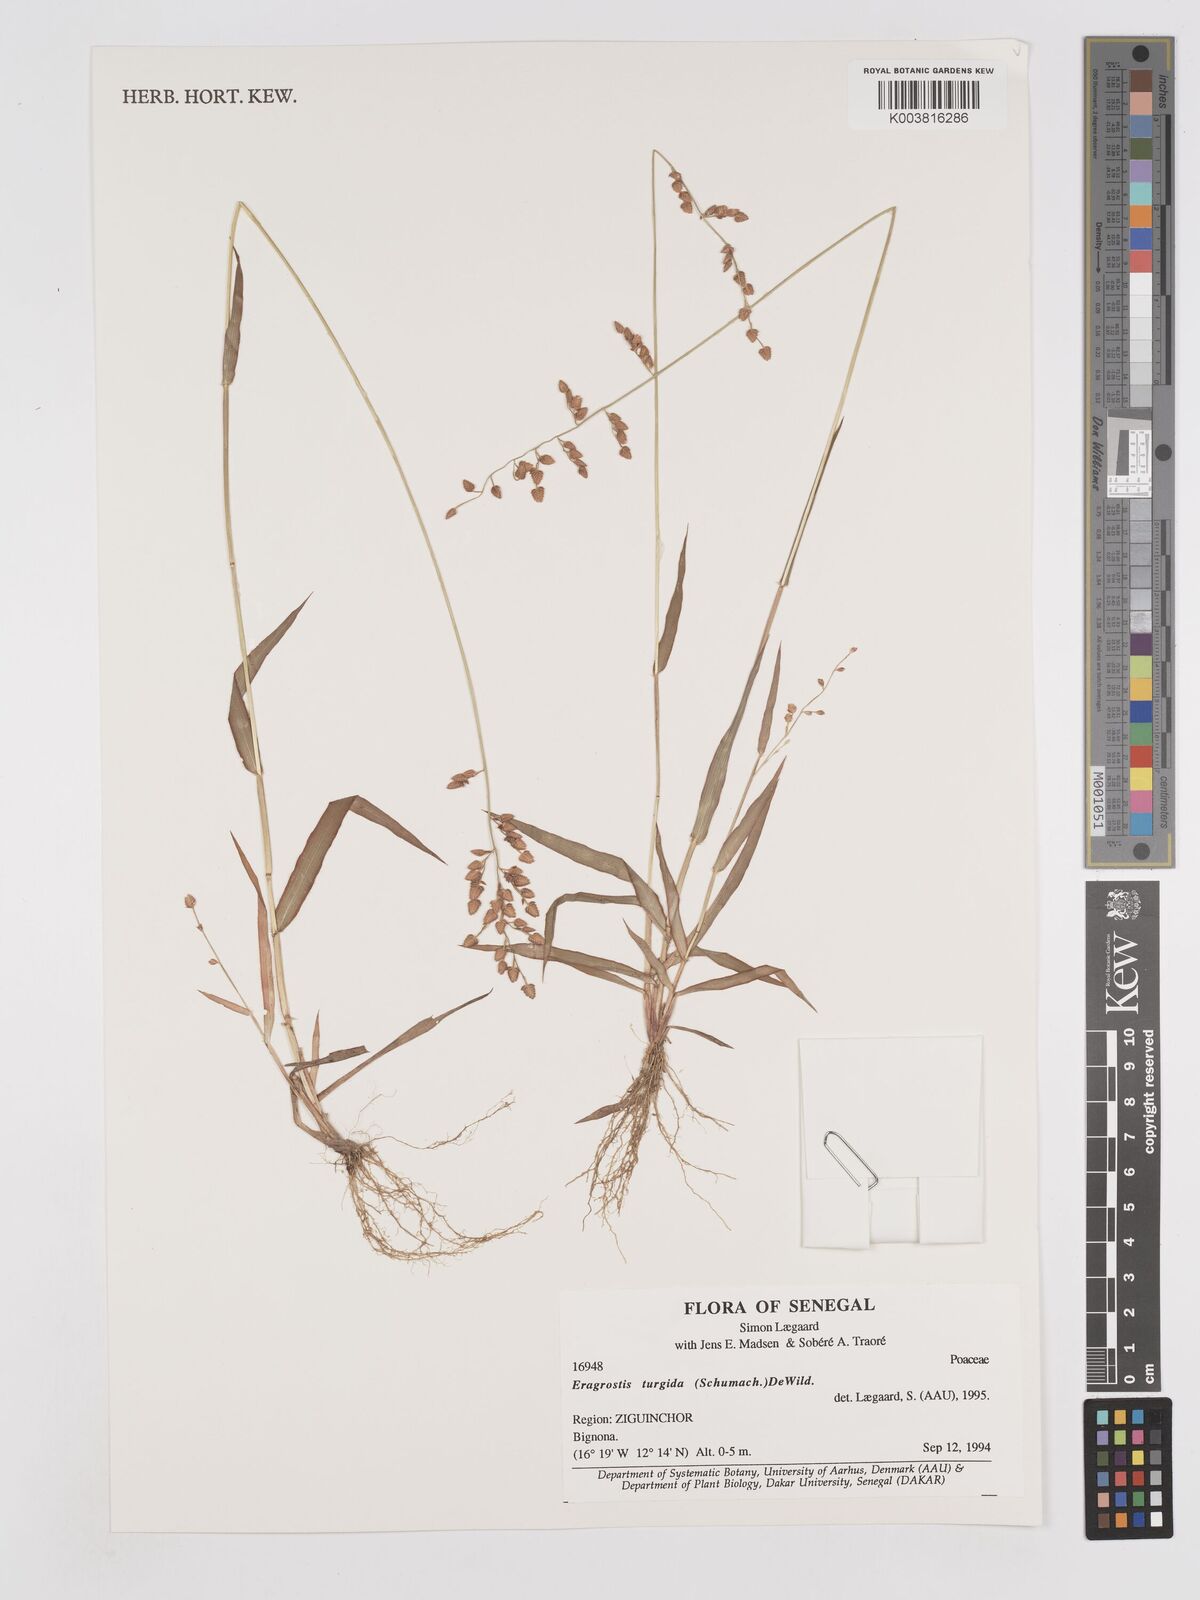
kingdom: Plantae
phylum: Tracheophyta
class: Liliopsida
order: Poales
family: Poaceae
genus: Eragrostis
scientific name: Eragrostis turgida
